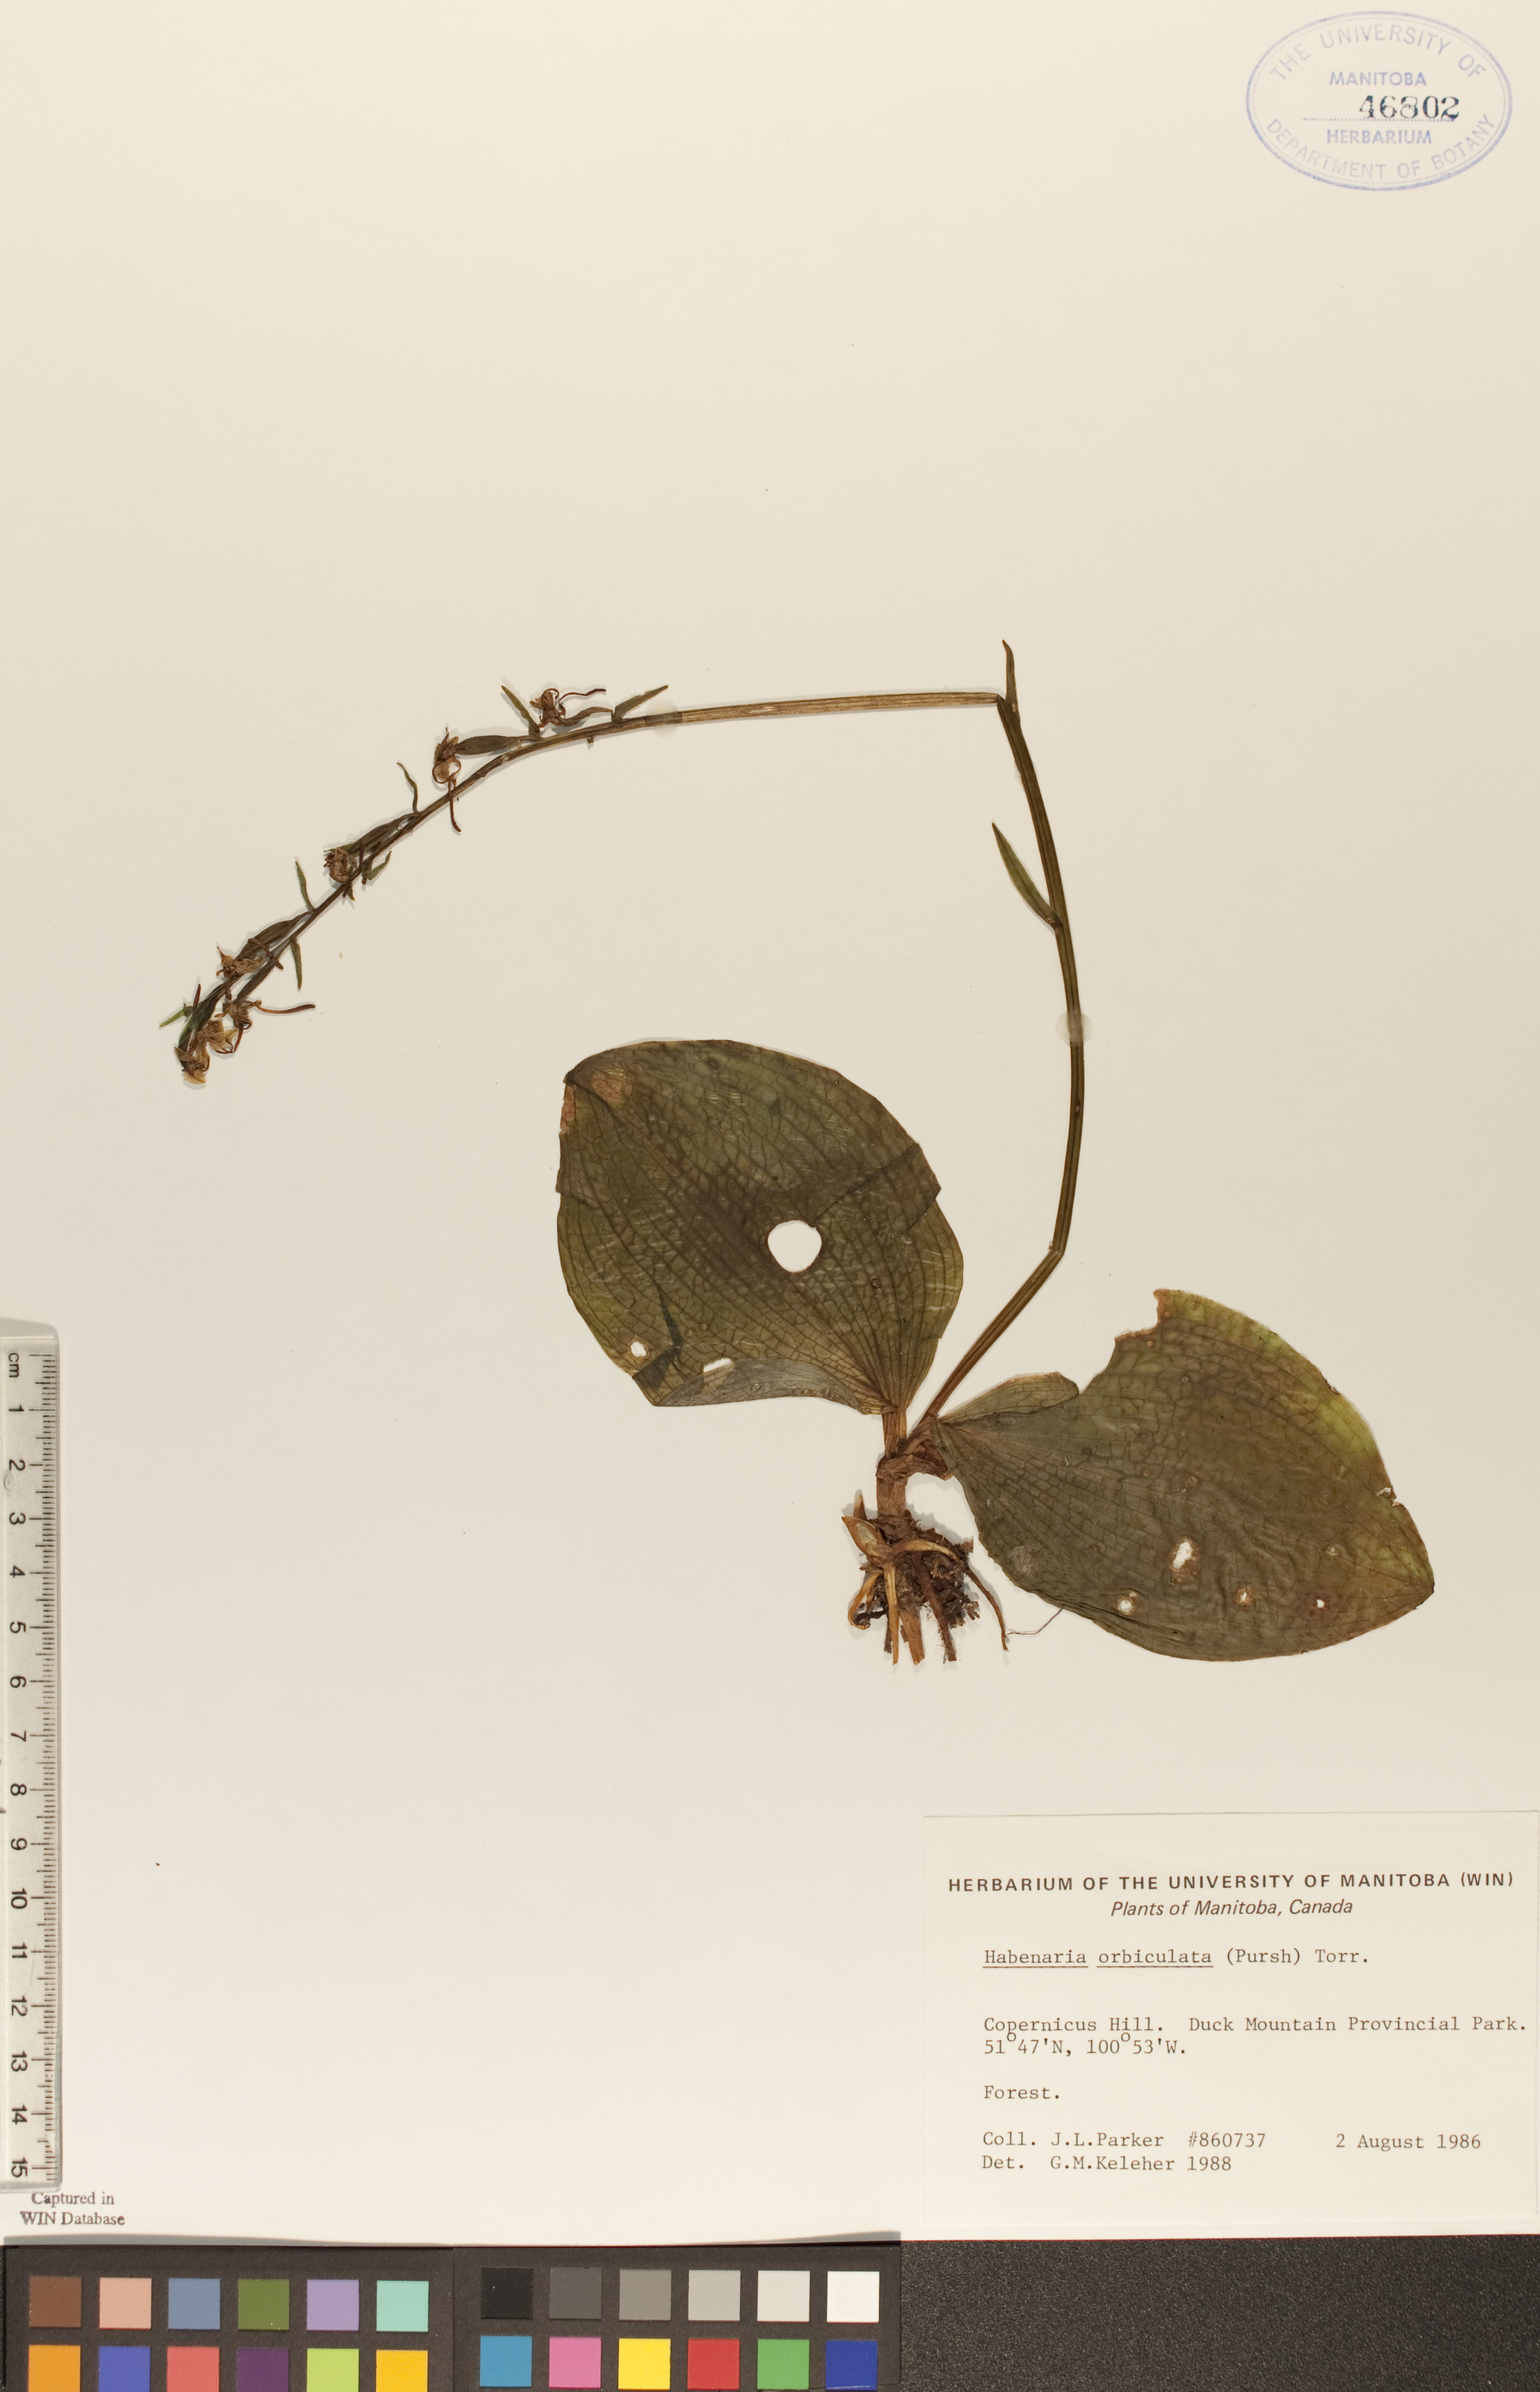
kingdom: Plantae
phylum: Tracheophyta
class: Liliopsida
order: Asparagales
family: Orchidaceae
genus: Platanthera
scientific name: Platanthera orbiculata
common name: Large round-leaved orchid
